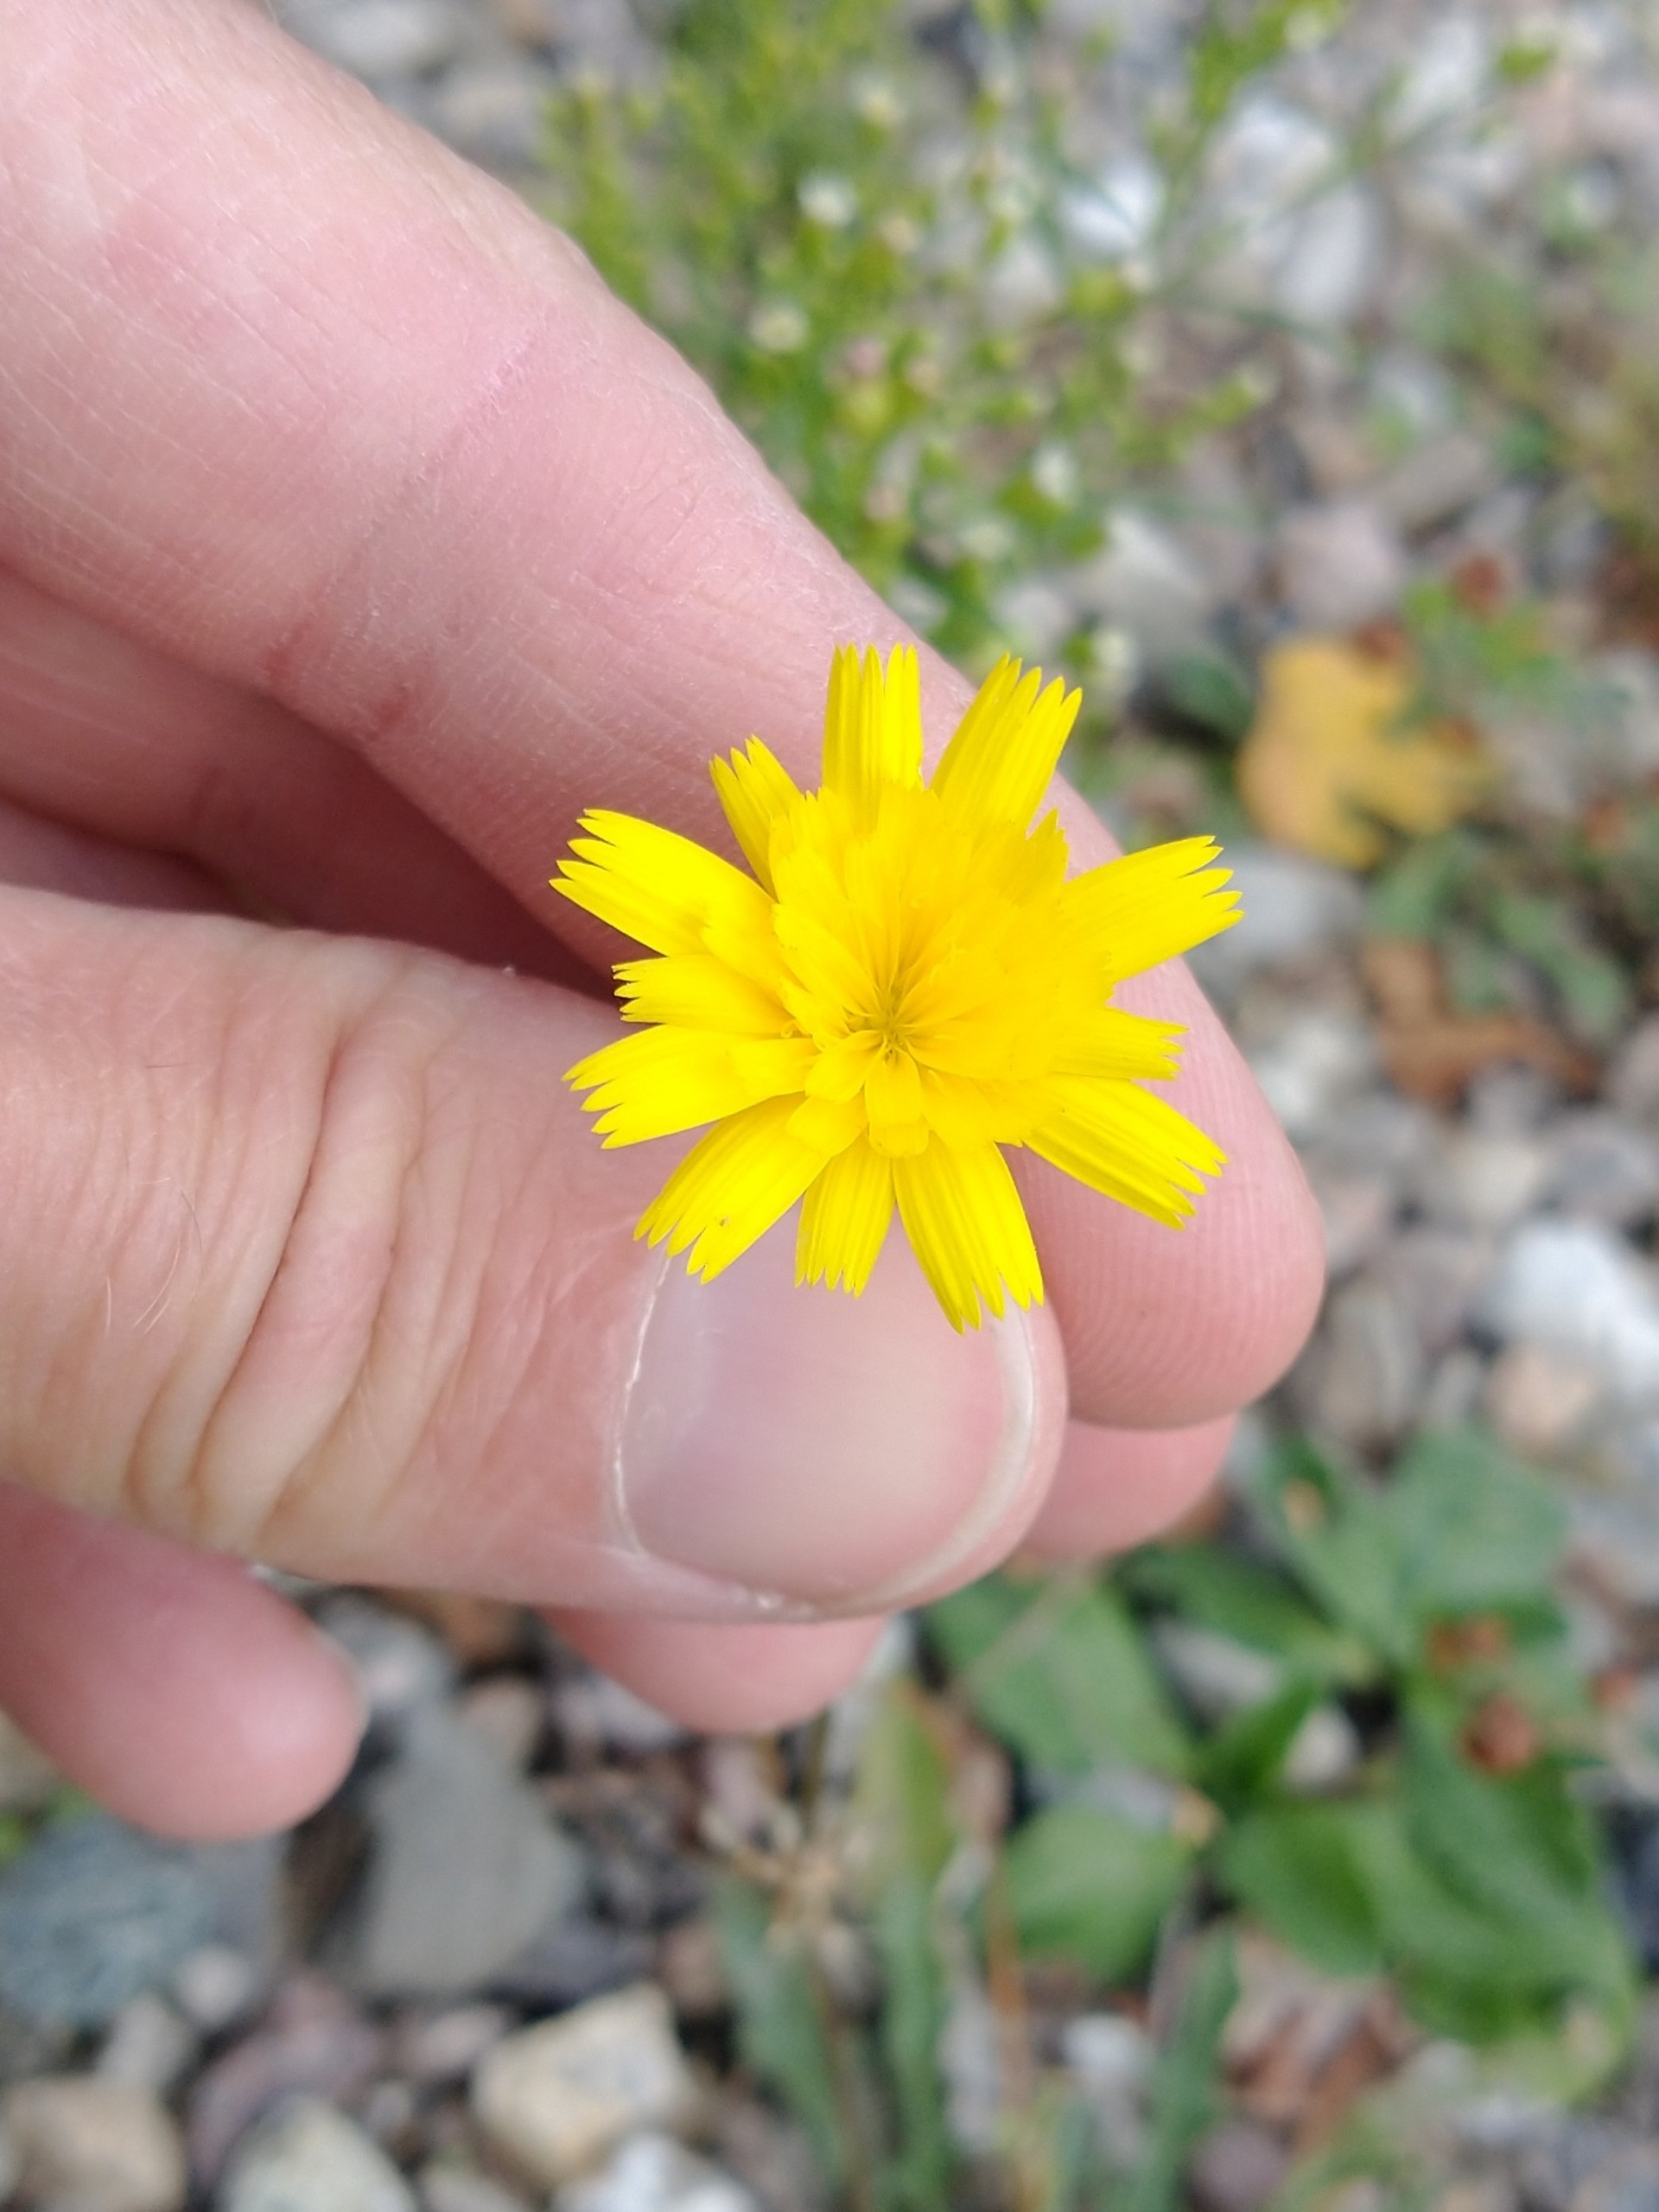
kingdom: Plantae
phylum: Tracheophyta
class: Magnoliopsida
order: Asterales
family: Asteraceae
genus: Thrincia
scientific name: Thrincia saxatilis
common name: Hundesalat
